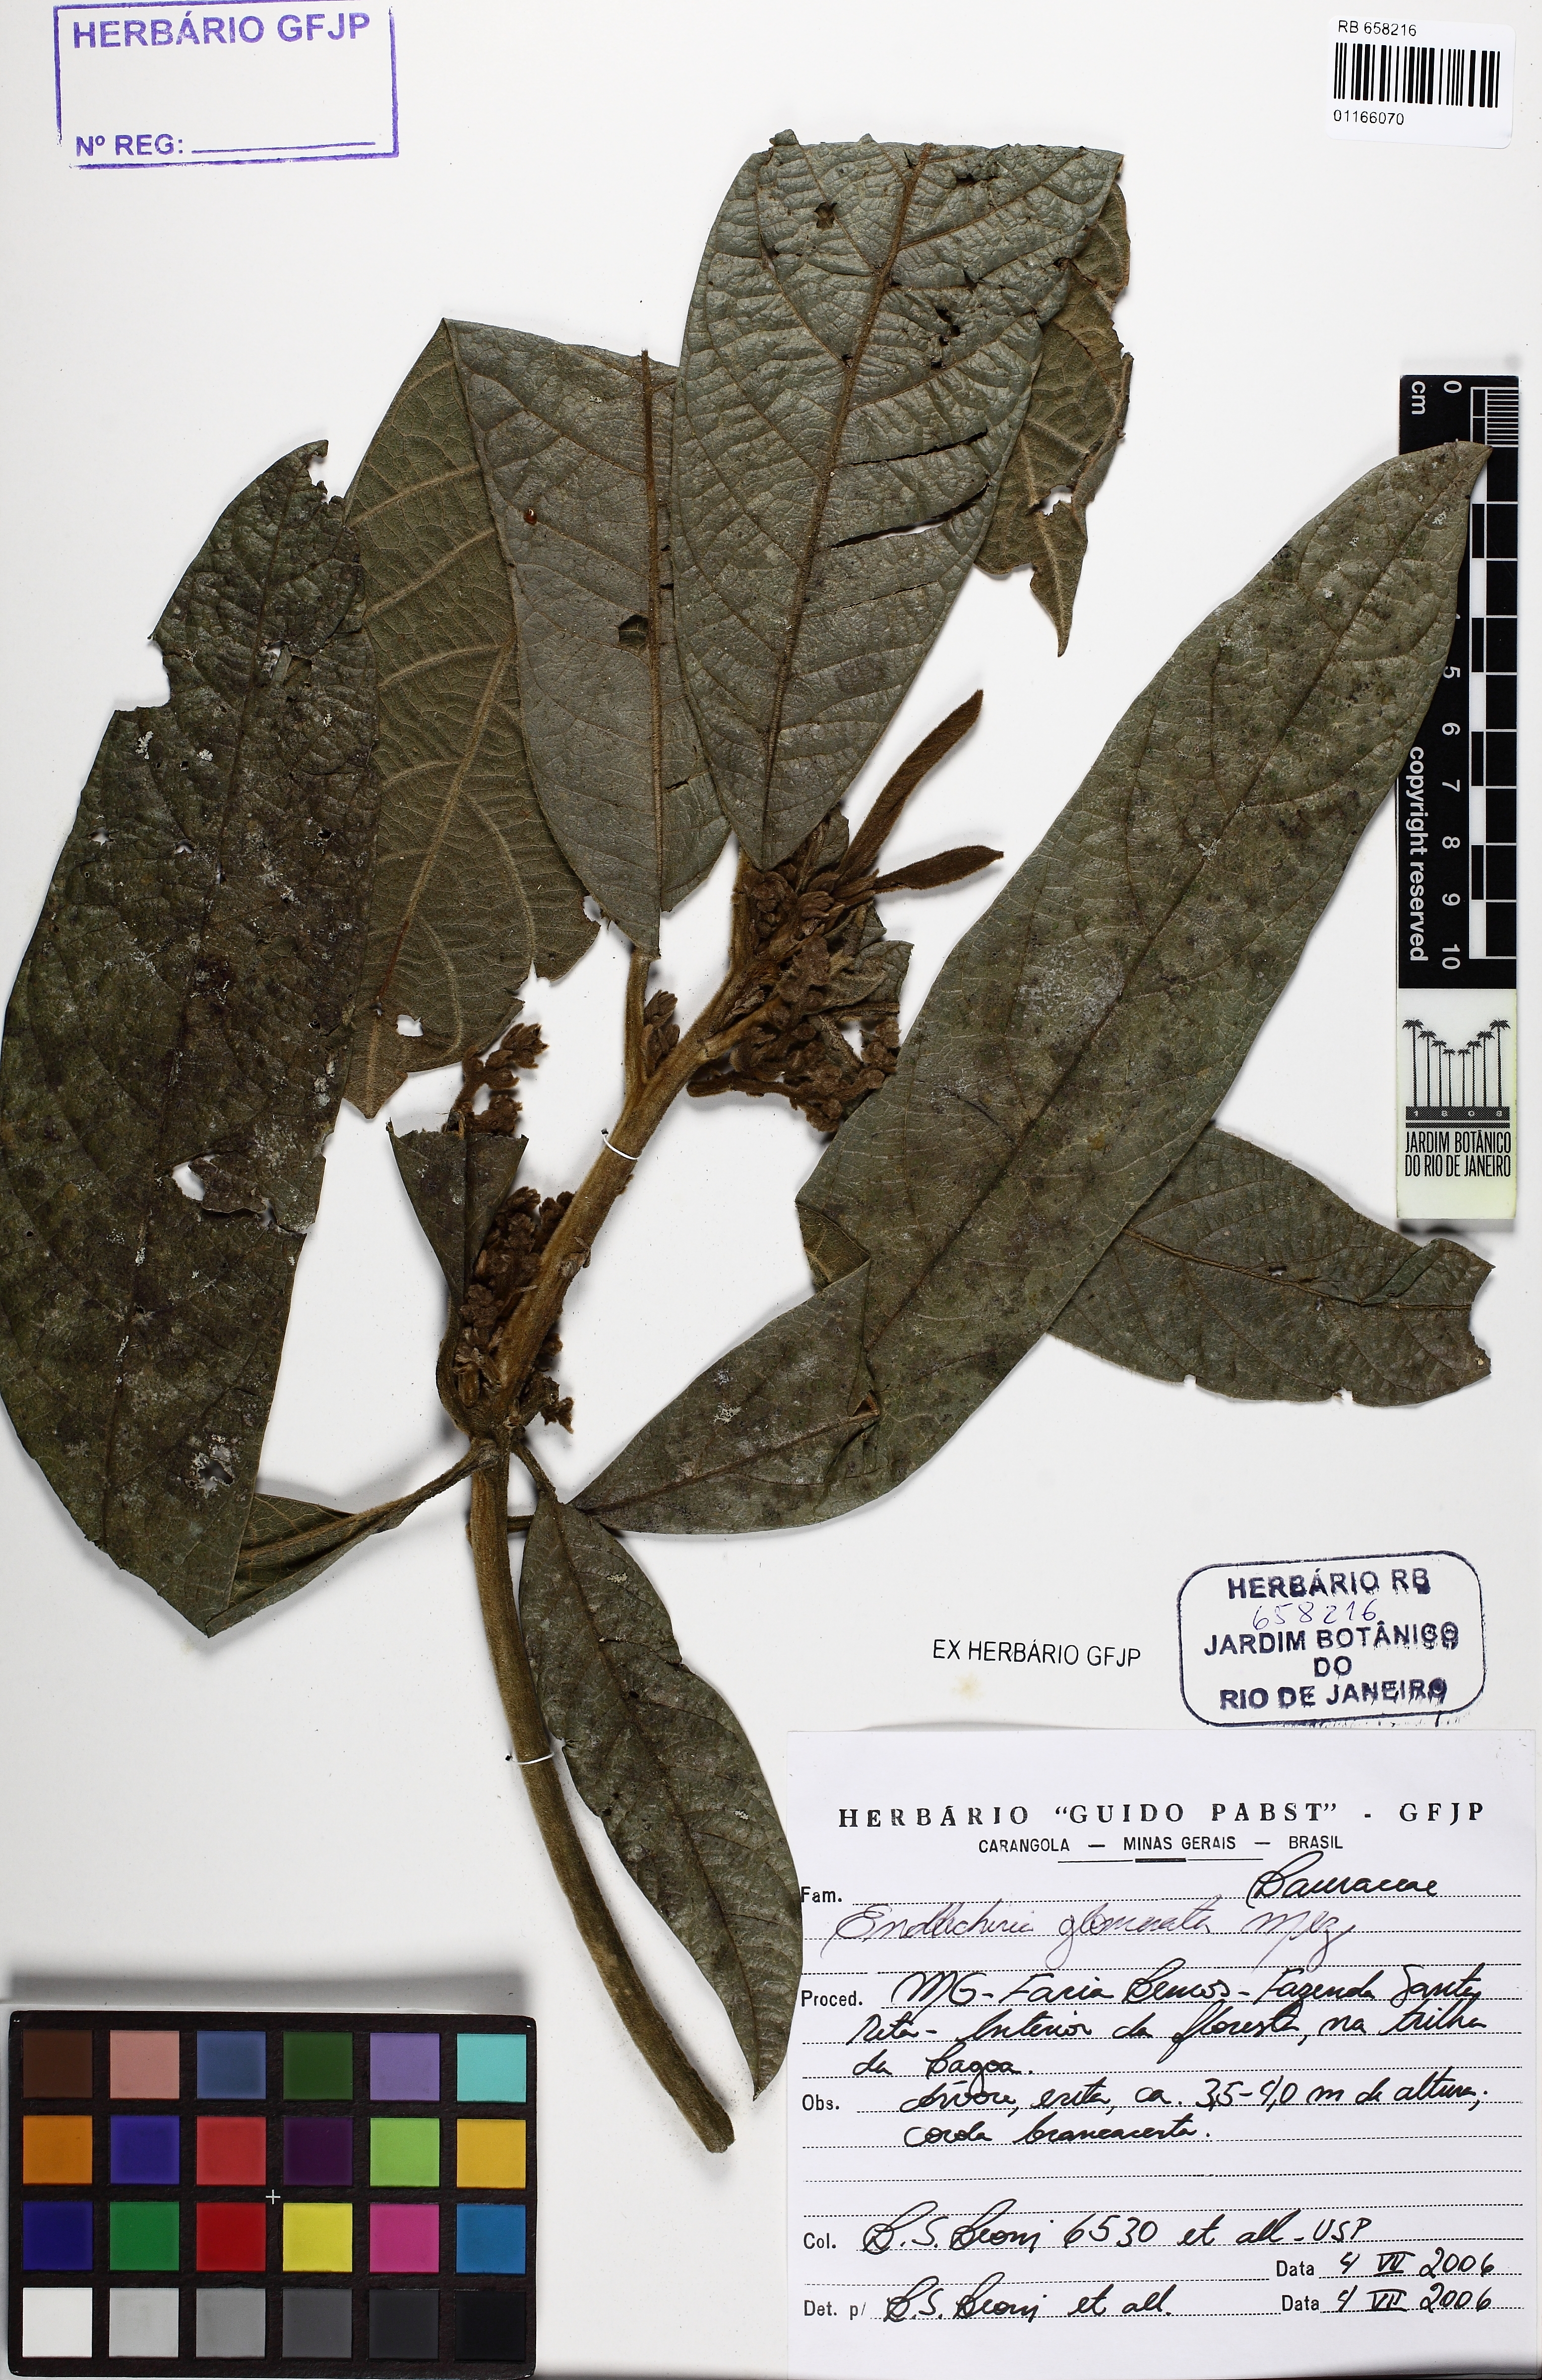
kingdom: Plantae
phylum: Tracheophyta
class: Magnoliopsida
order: Laurales
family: Lauraceae
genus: Endlicheria
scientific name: Endlicheria glomerata
